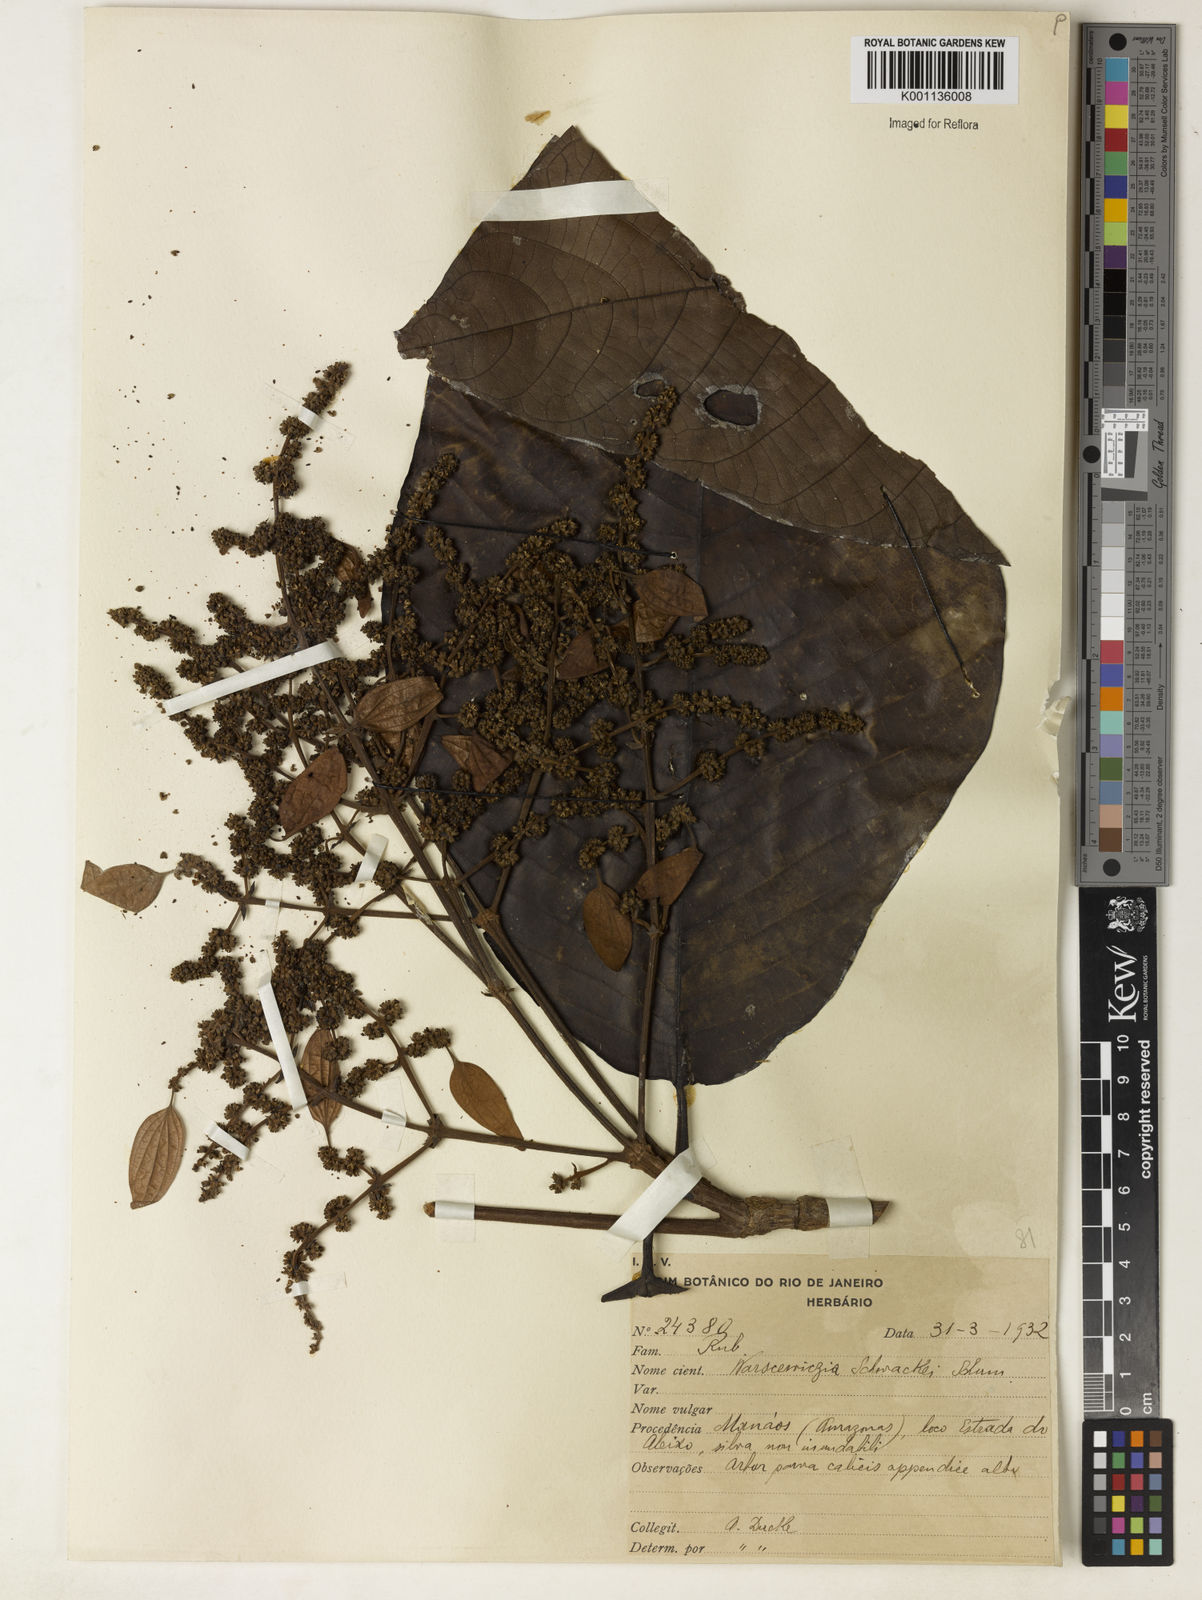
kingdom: Plantae
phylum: Tracheophyta
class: Magnoliopsida
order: Gentianales
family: Rubiaceae
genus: Warszewiczia
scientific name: Warszewiczia schwackei
